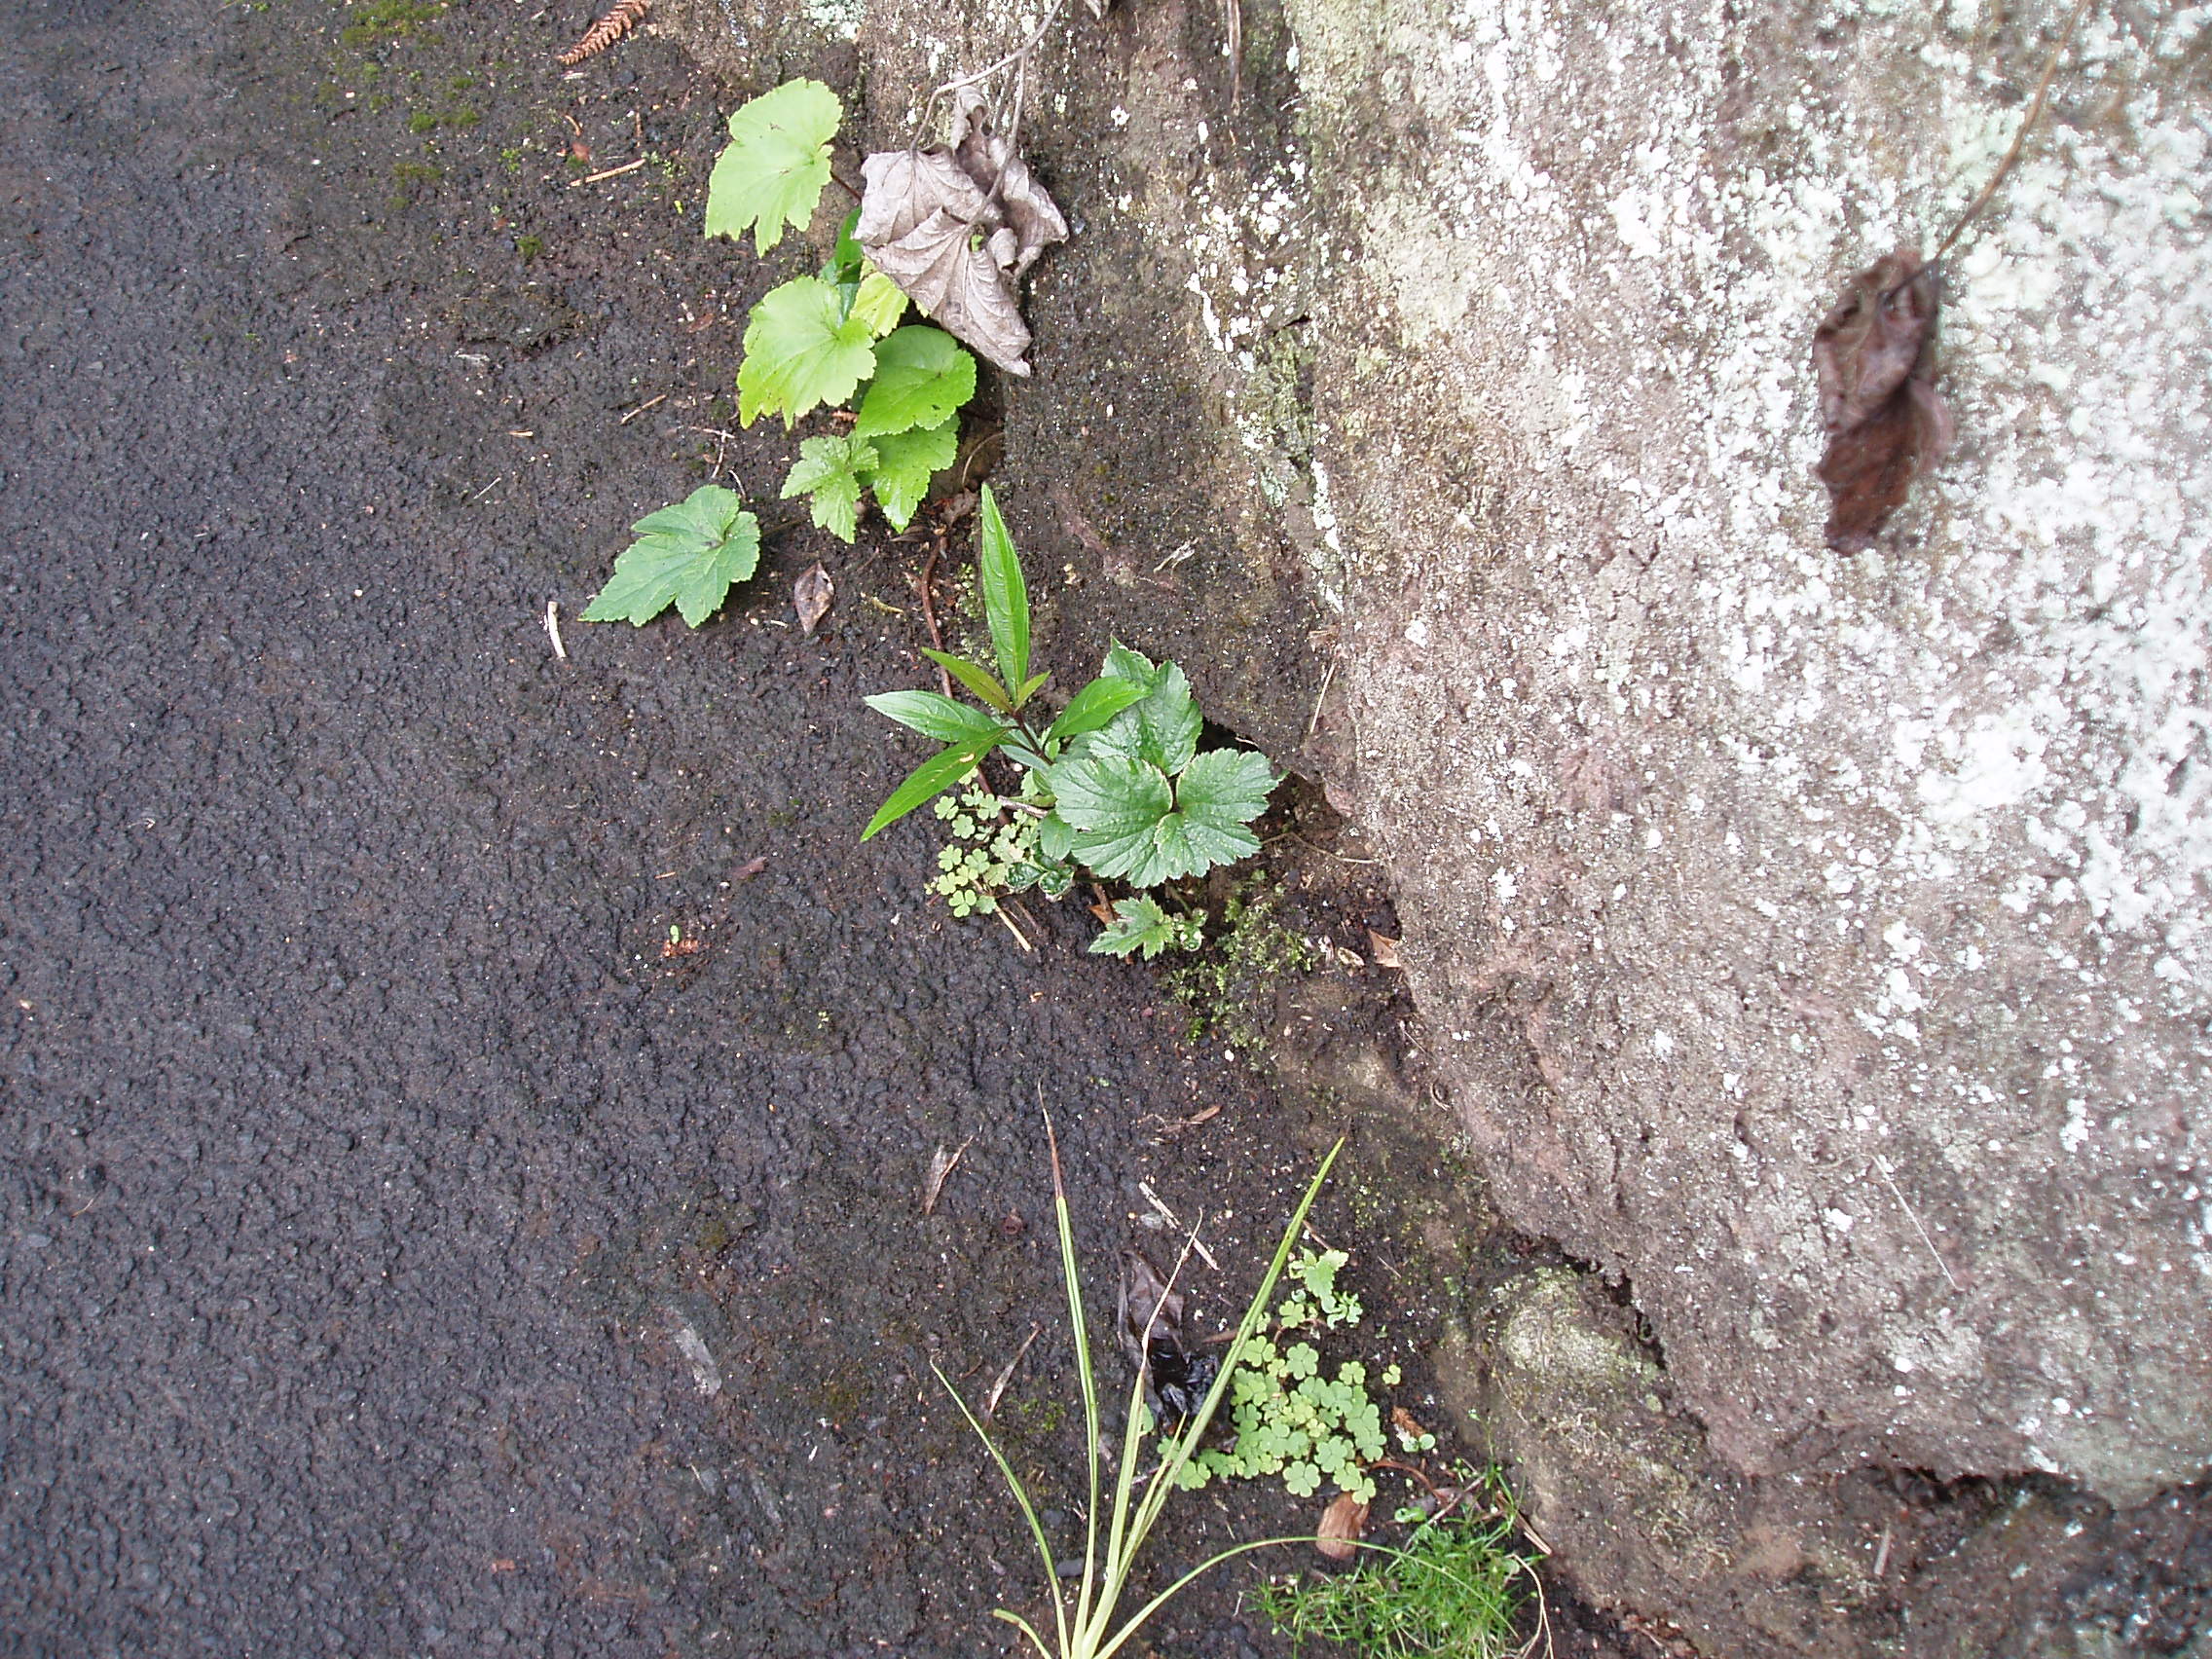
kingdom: Plantae
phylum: Tracheophyta
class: Magnoliopsida
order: Lamiales
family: Acanthaceae
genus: Strobilanthes
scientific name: Strobilanthes anisophylla
